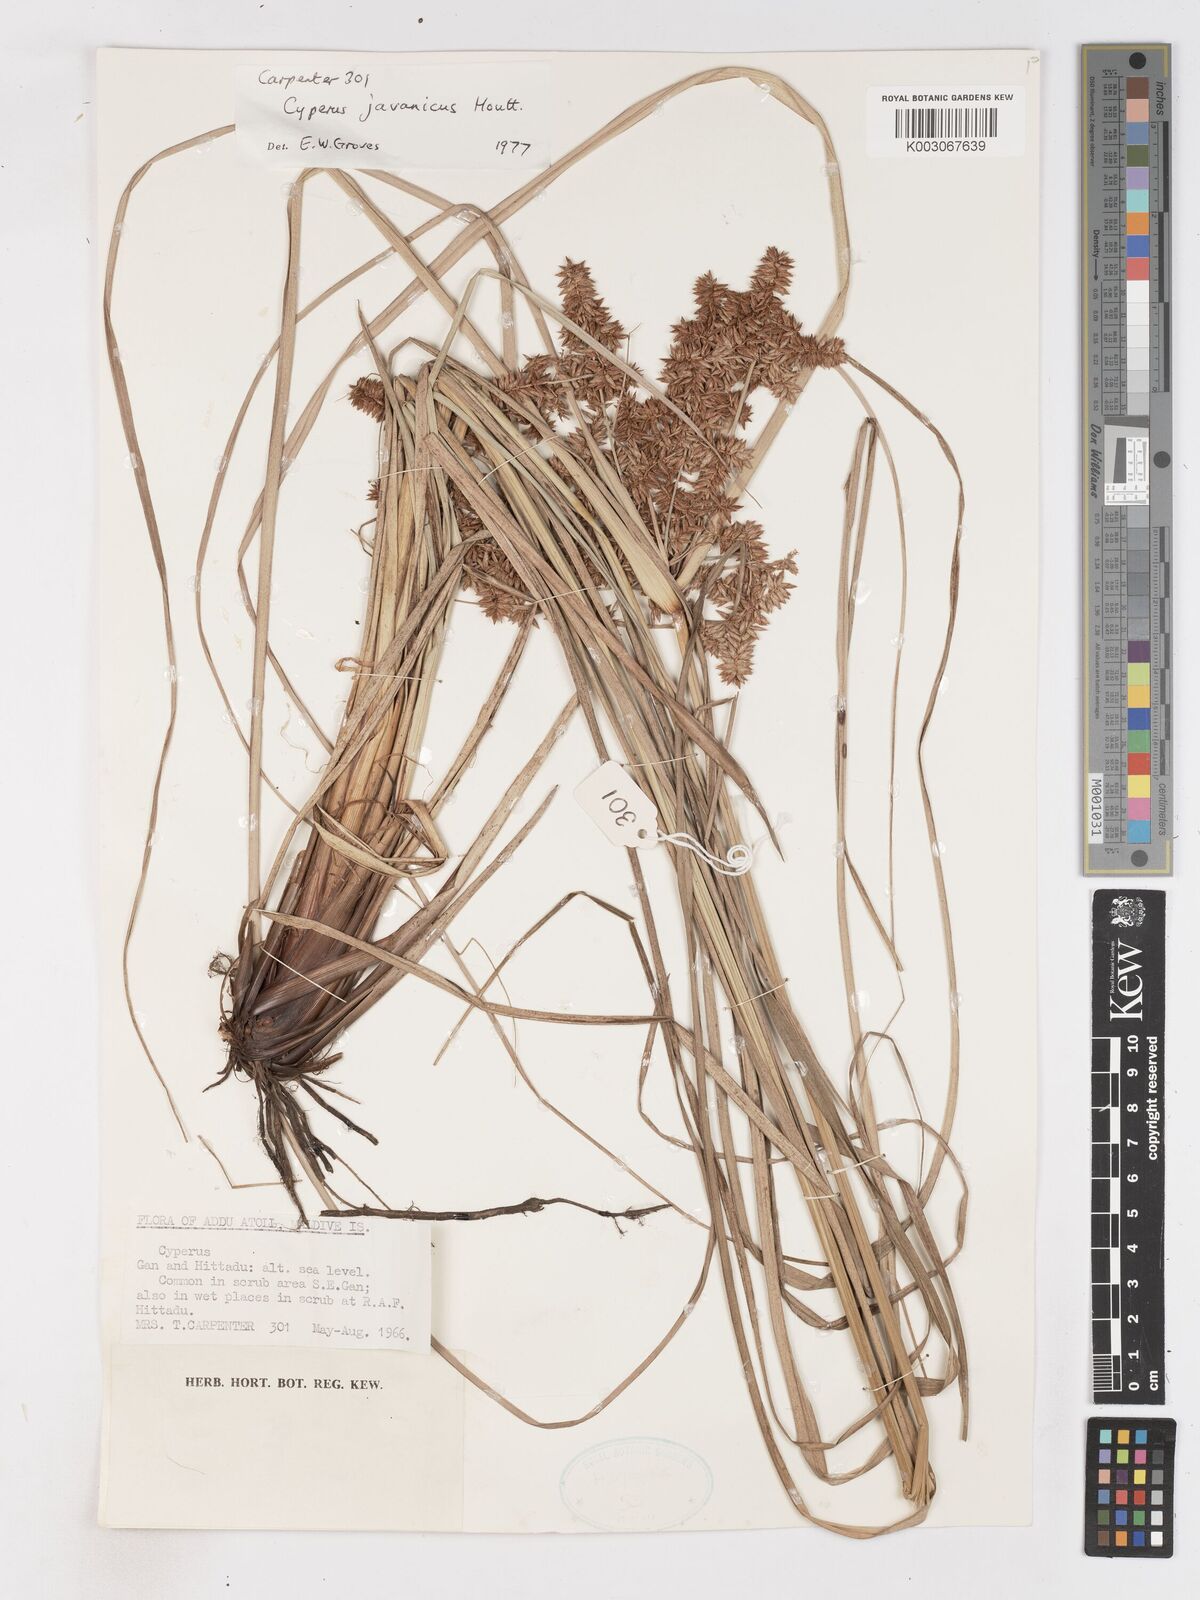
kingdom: Plantae
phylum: Tracheophyta
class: Liliopsida
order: Poales
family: Cyperaceae
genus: Cyperus
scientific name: Cyperus javanicus
